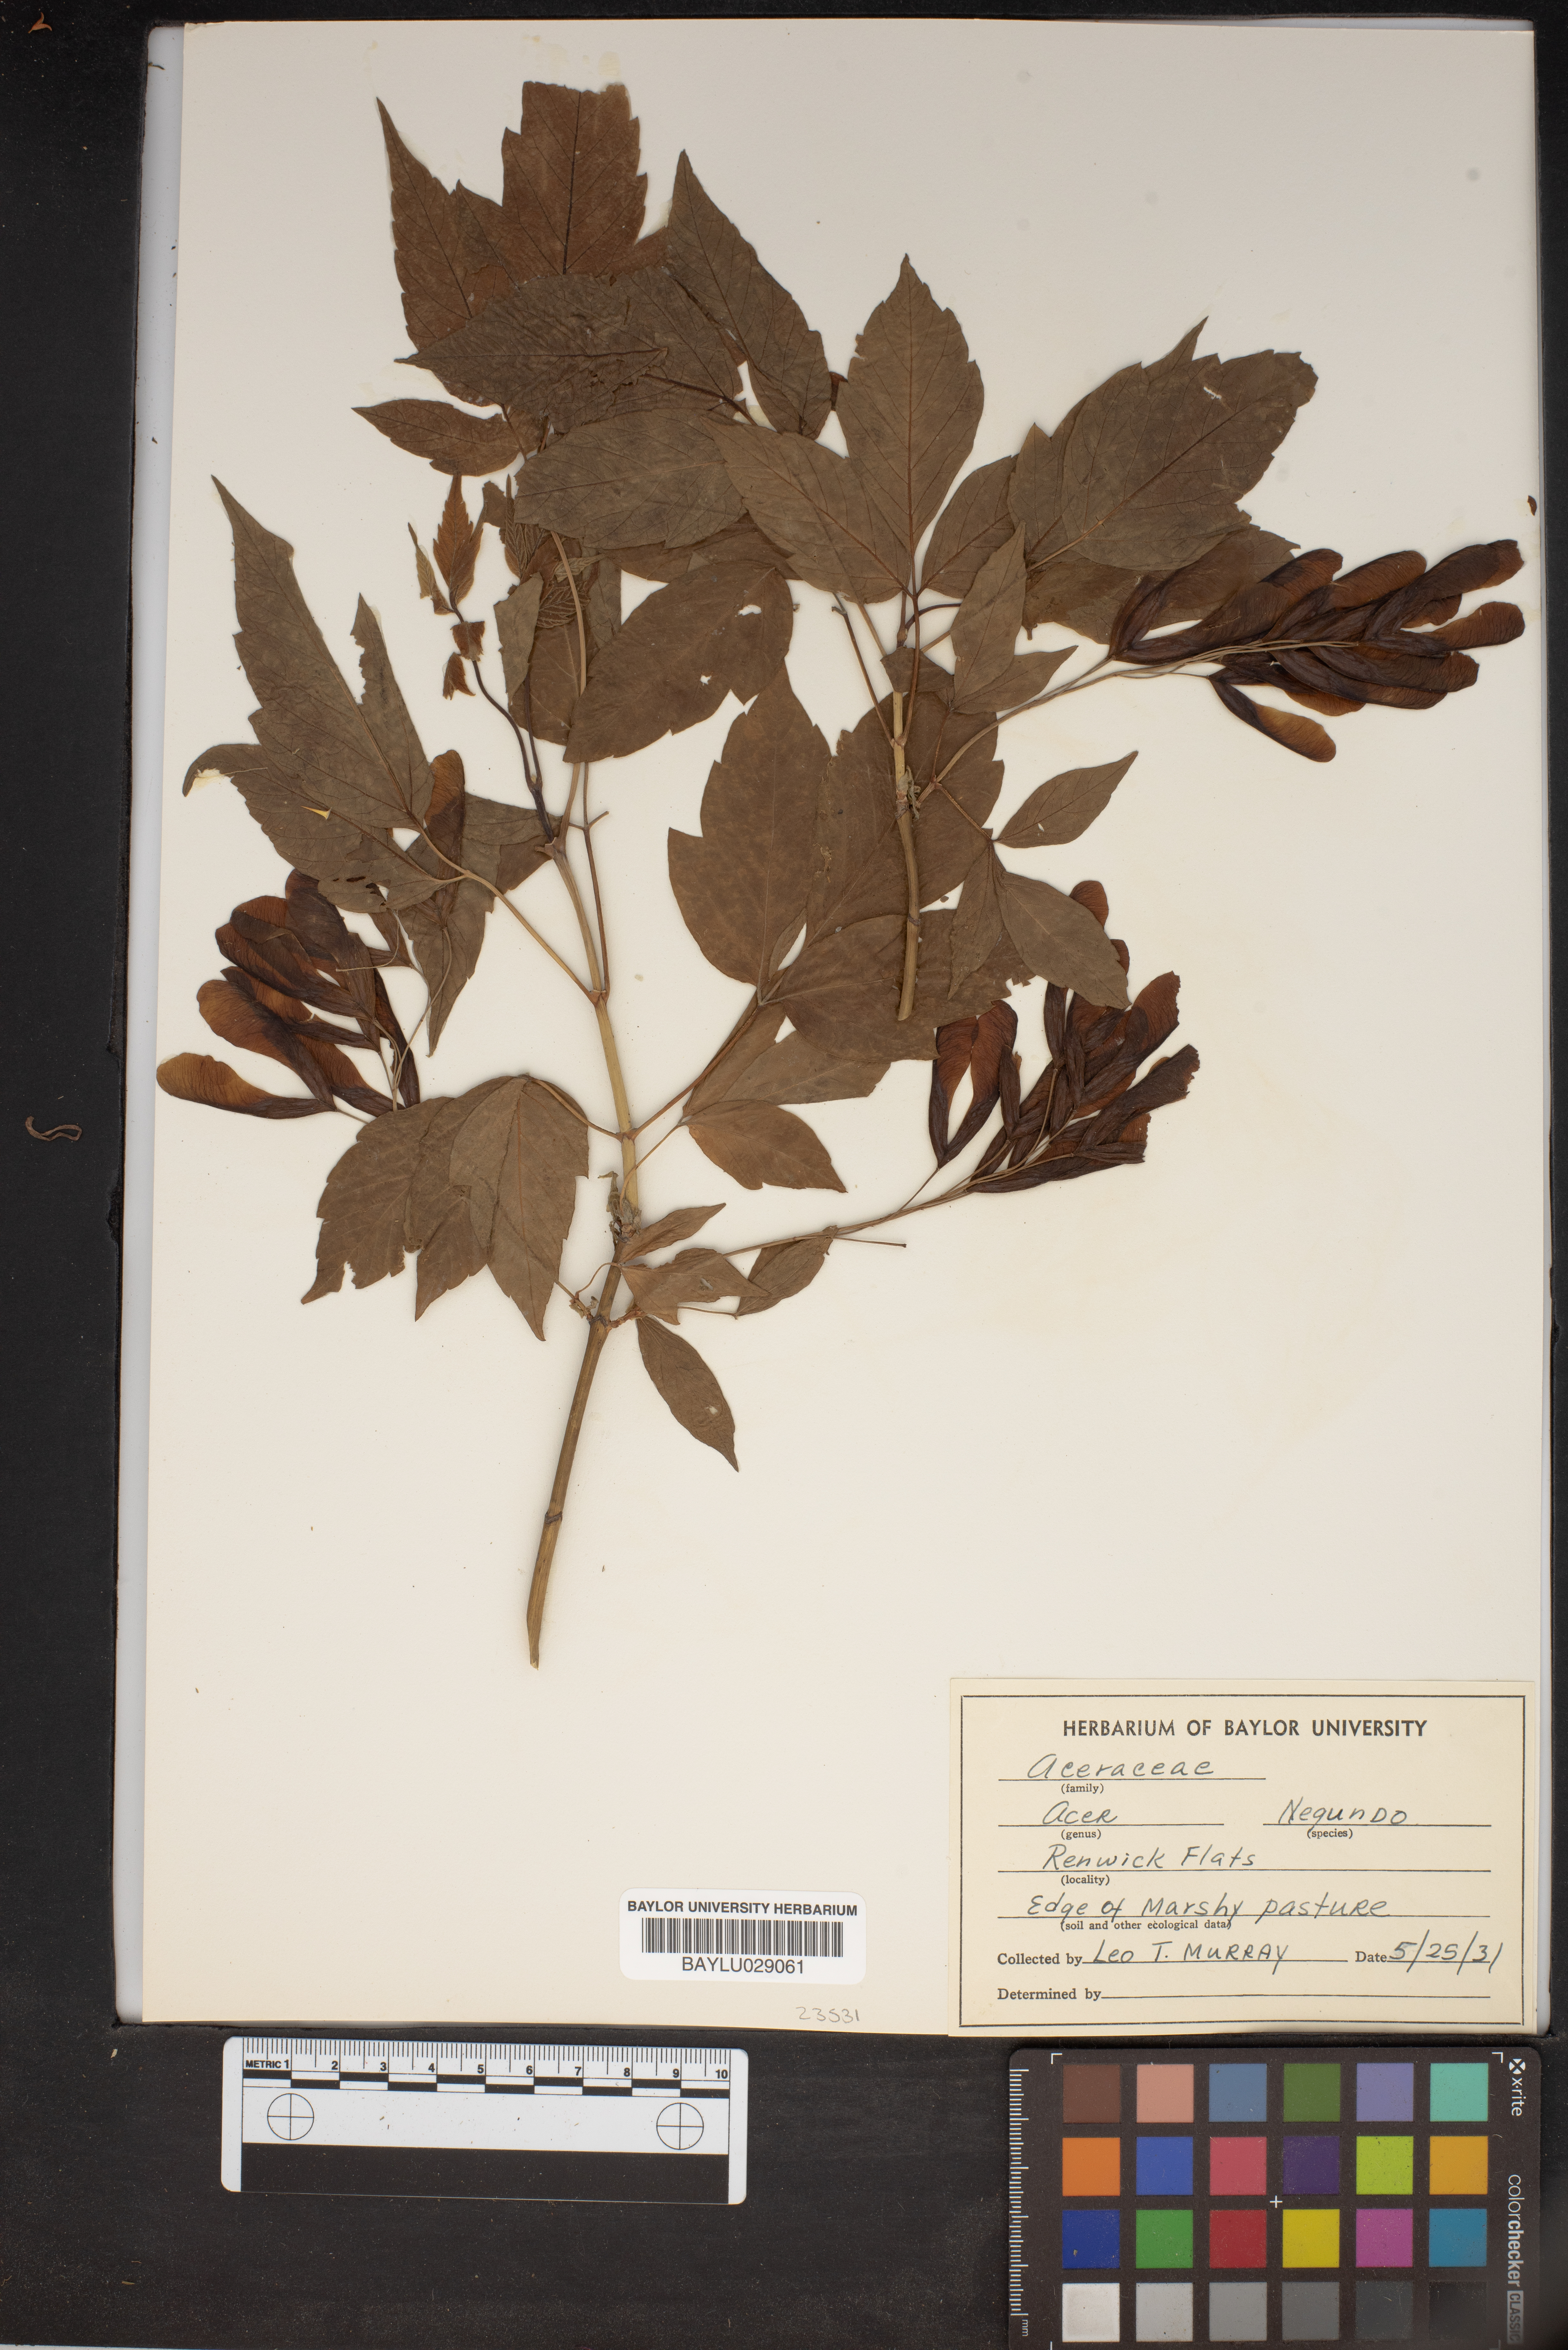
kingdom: Plantae
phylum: Tracheophyta
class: Magnoliopsida
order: Sapindales
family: Sapindaceae
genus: Acer
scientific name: Acer negundo
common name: Ashleaf maple
